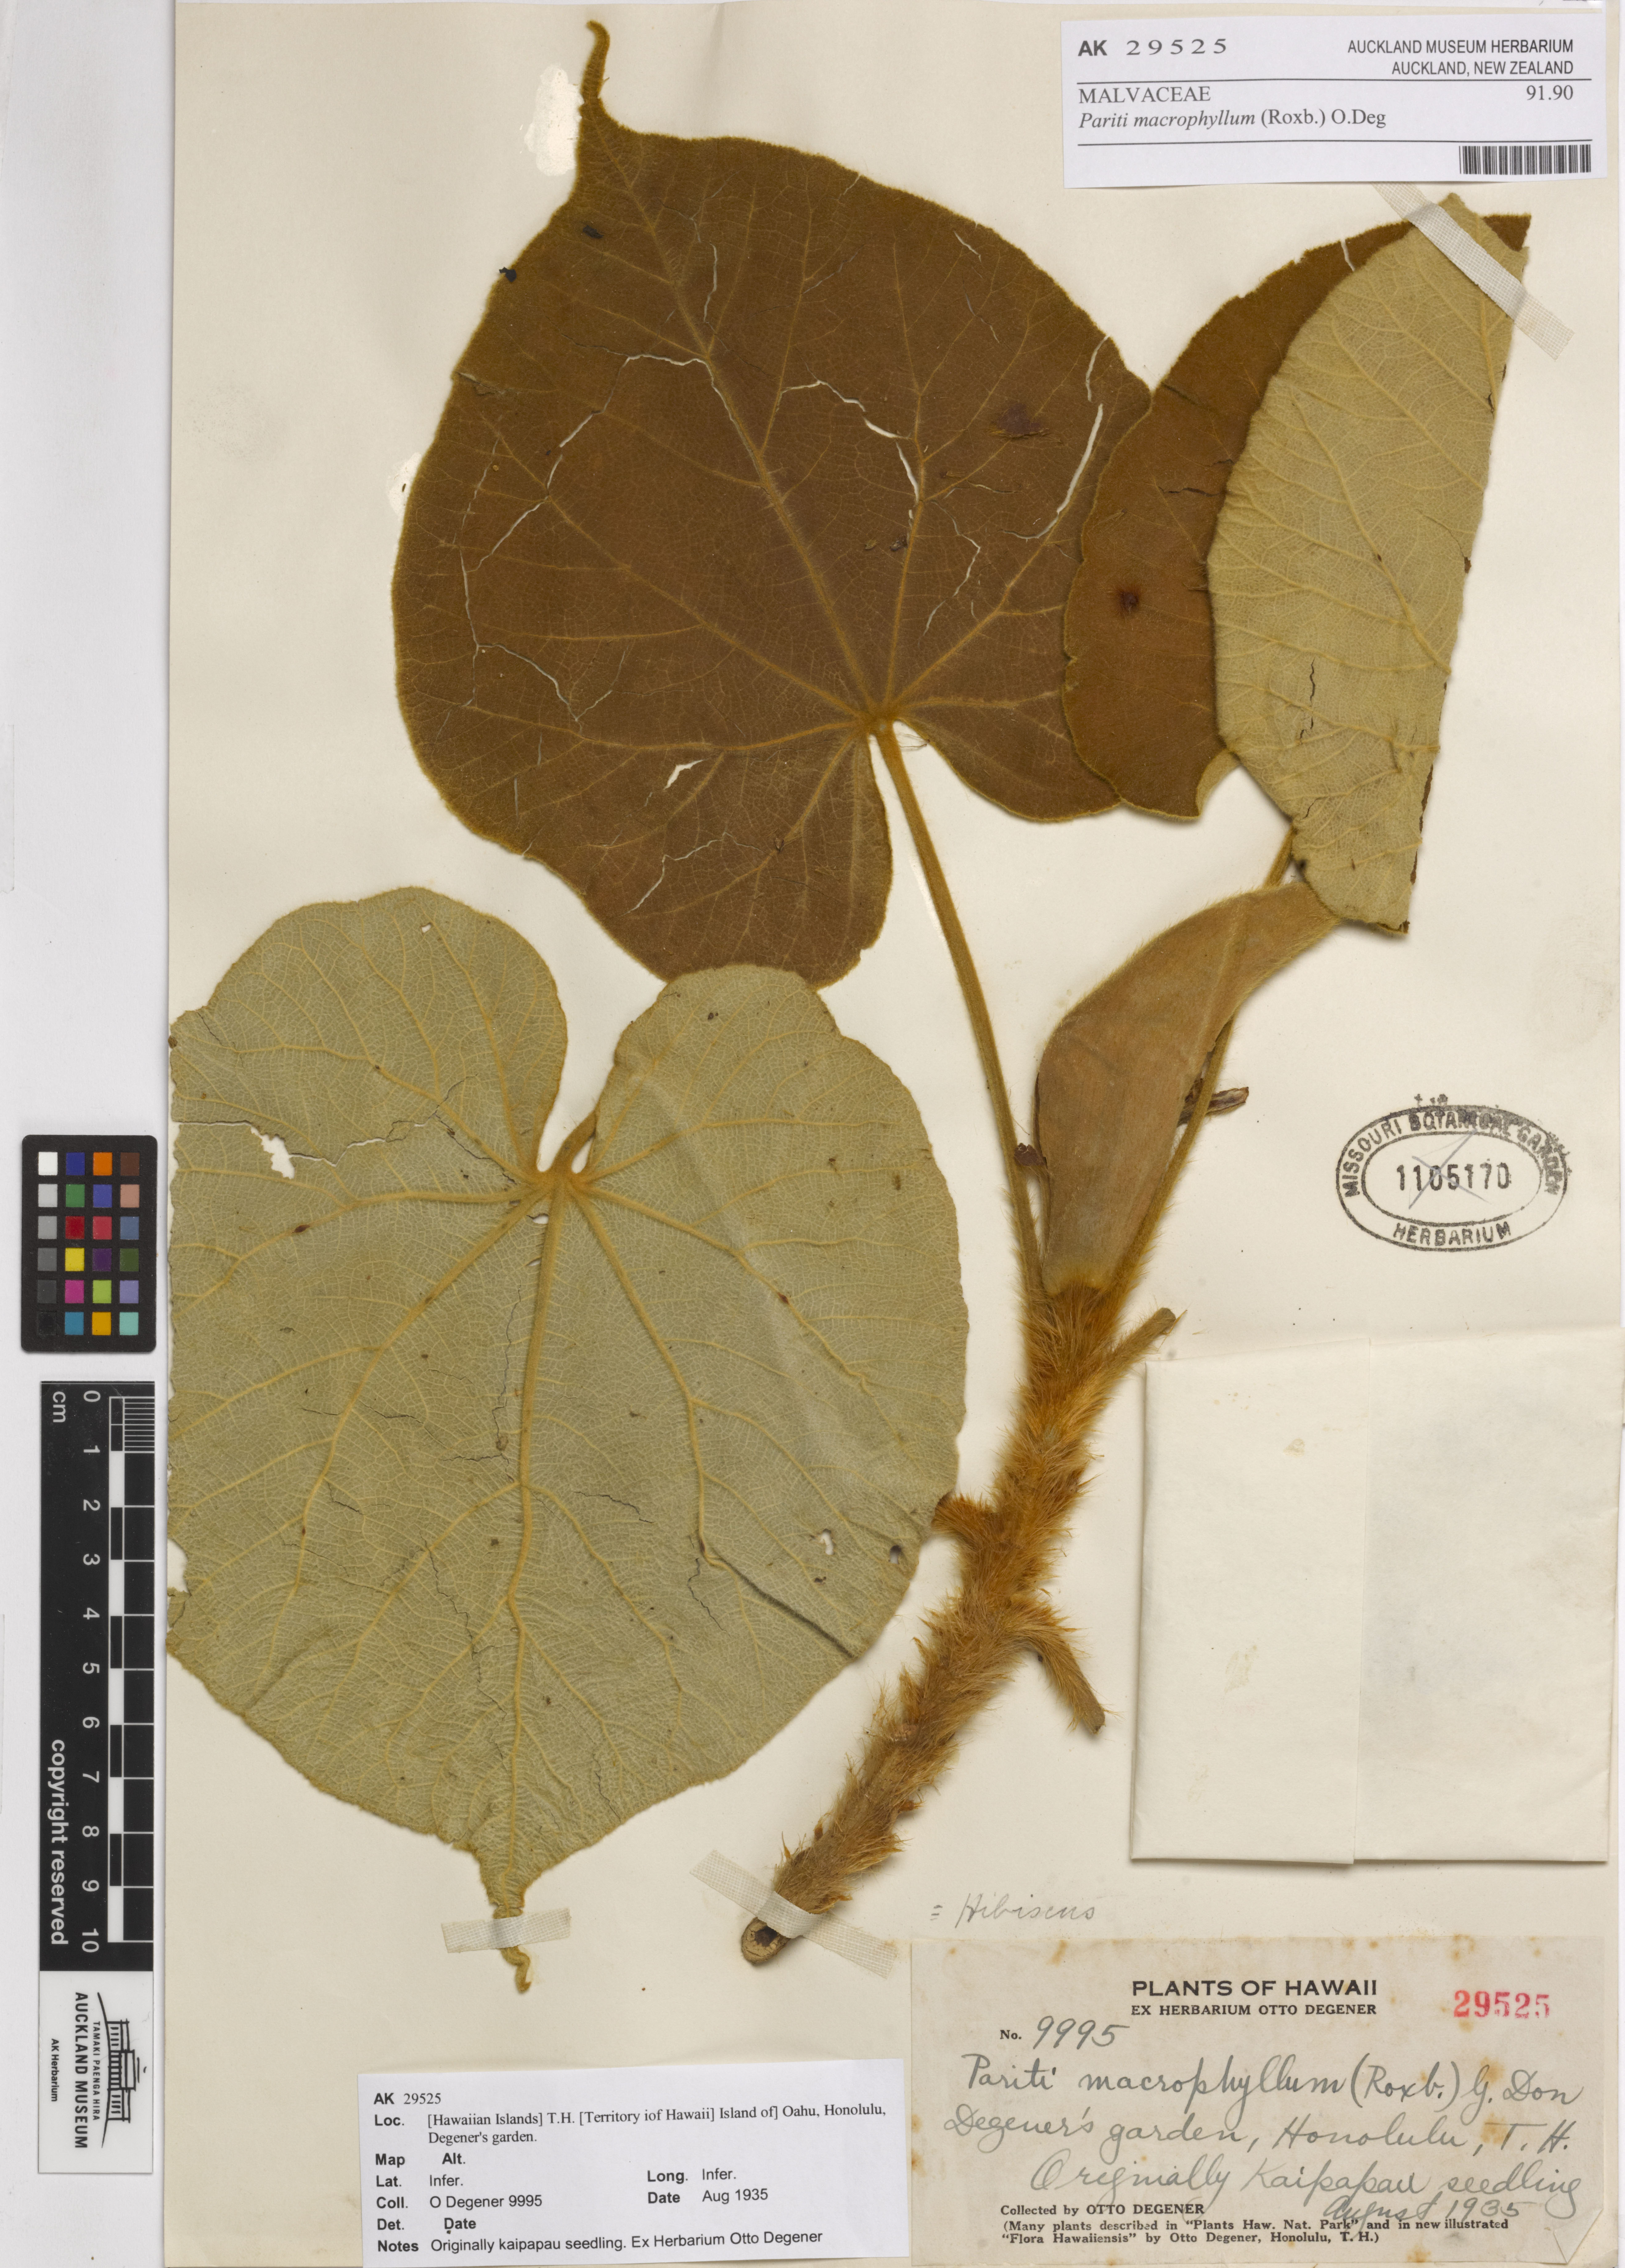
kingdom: Plantae
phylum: Tracheophyta
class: Magnoliopsida
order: Malvales
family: Malvaceae
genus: Talipariti
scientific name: Talipariti macrophyllum
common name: Largeleaf rosemallow
